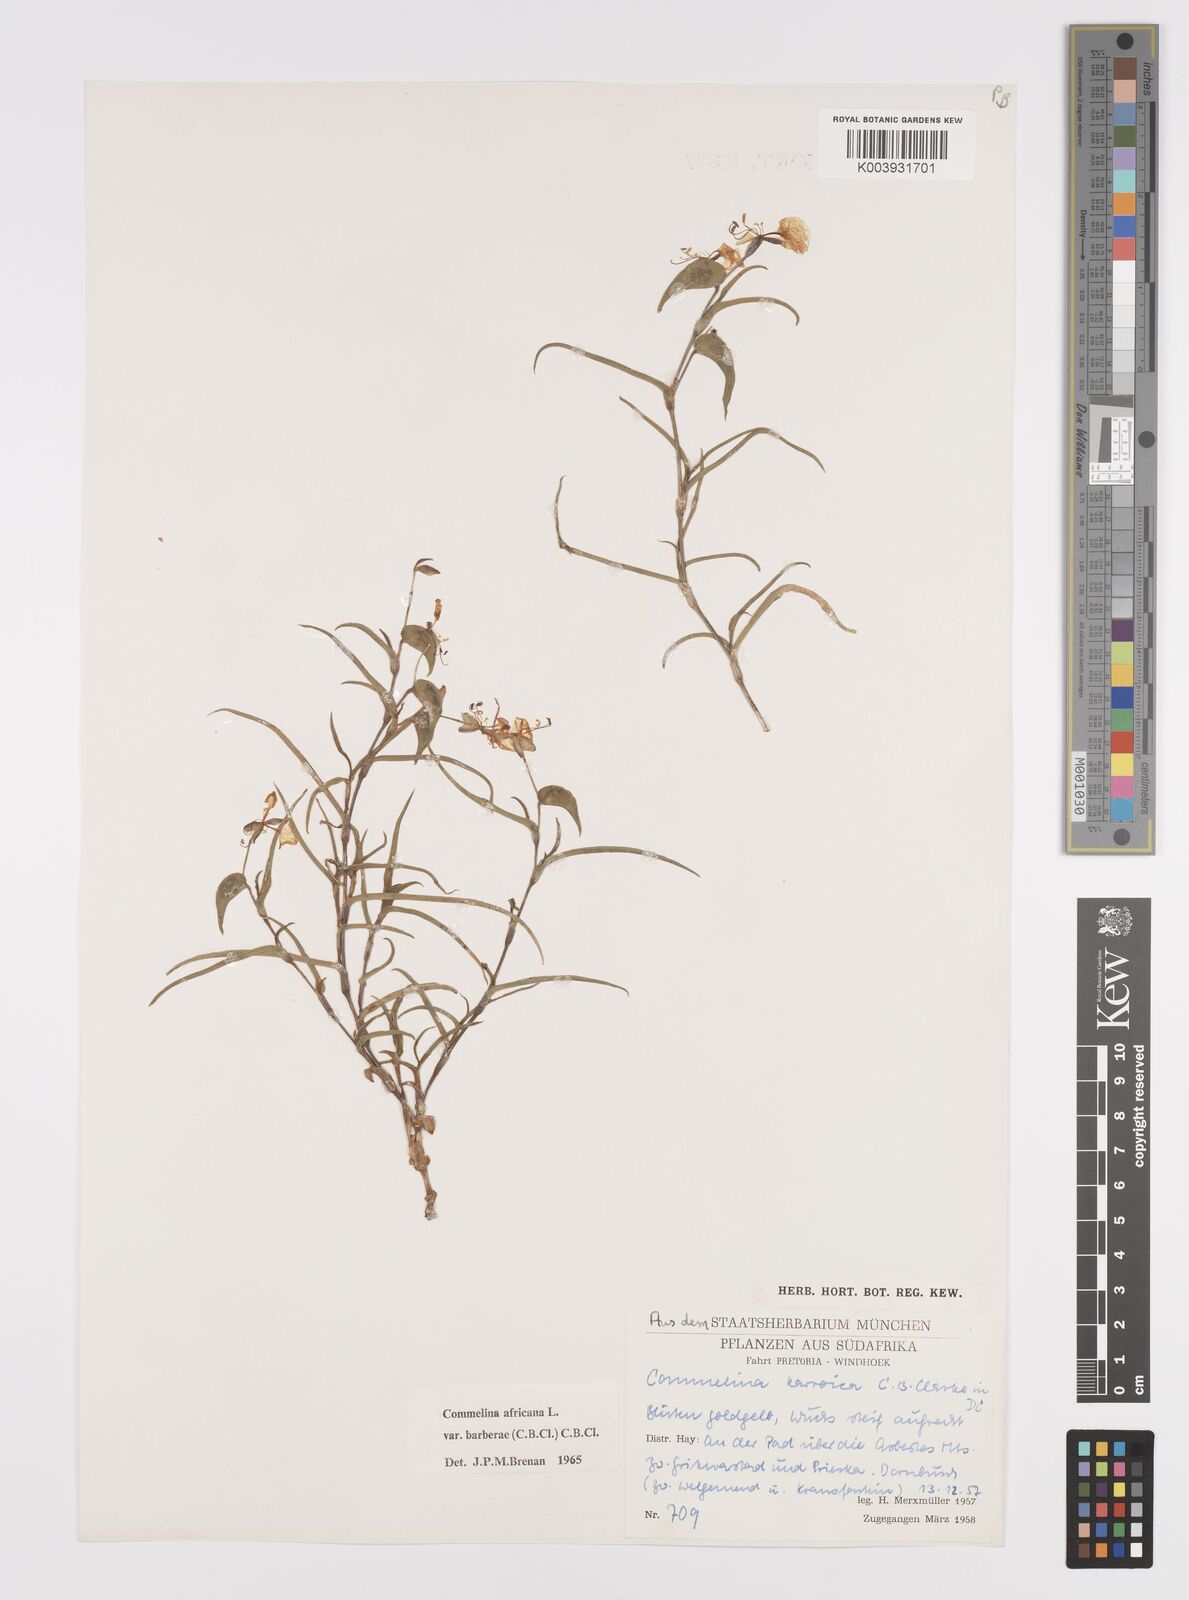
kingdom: Plantae
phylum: Tracheophyta
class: Liliopsida
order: Commelinales
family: Commelinaceae
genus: Commelina
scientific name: Commelina africana
